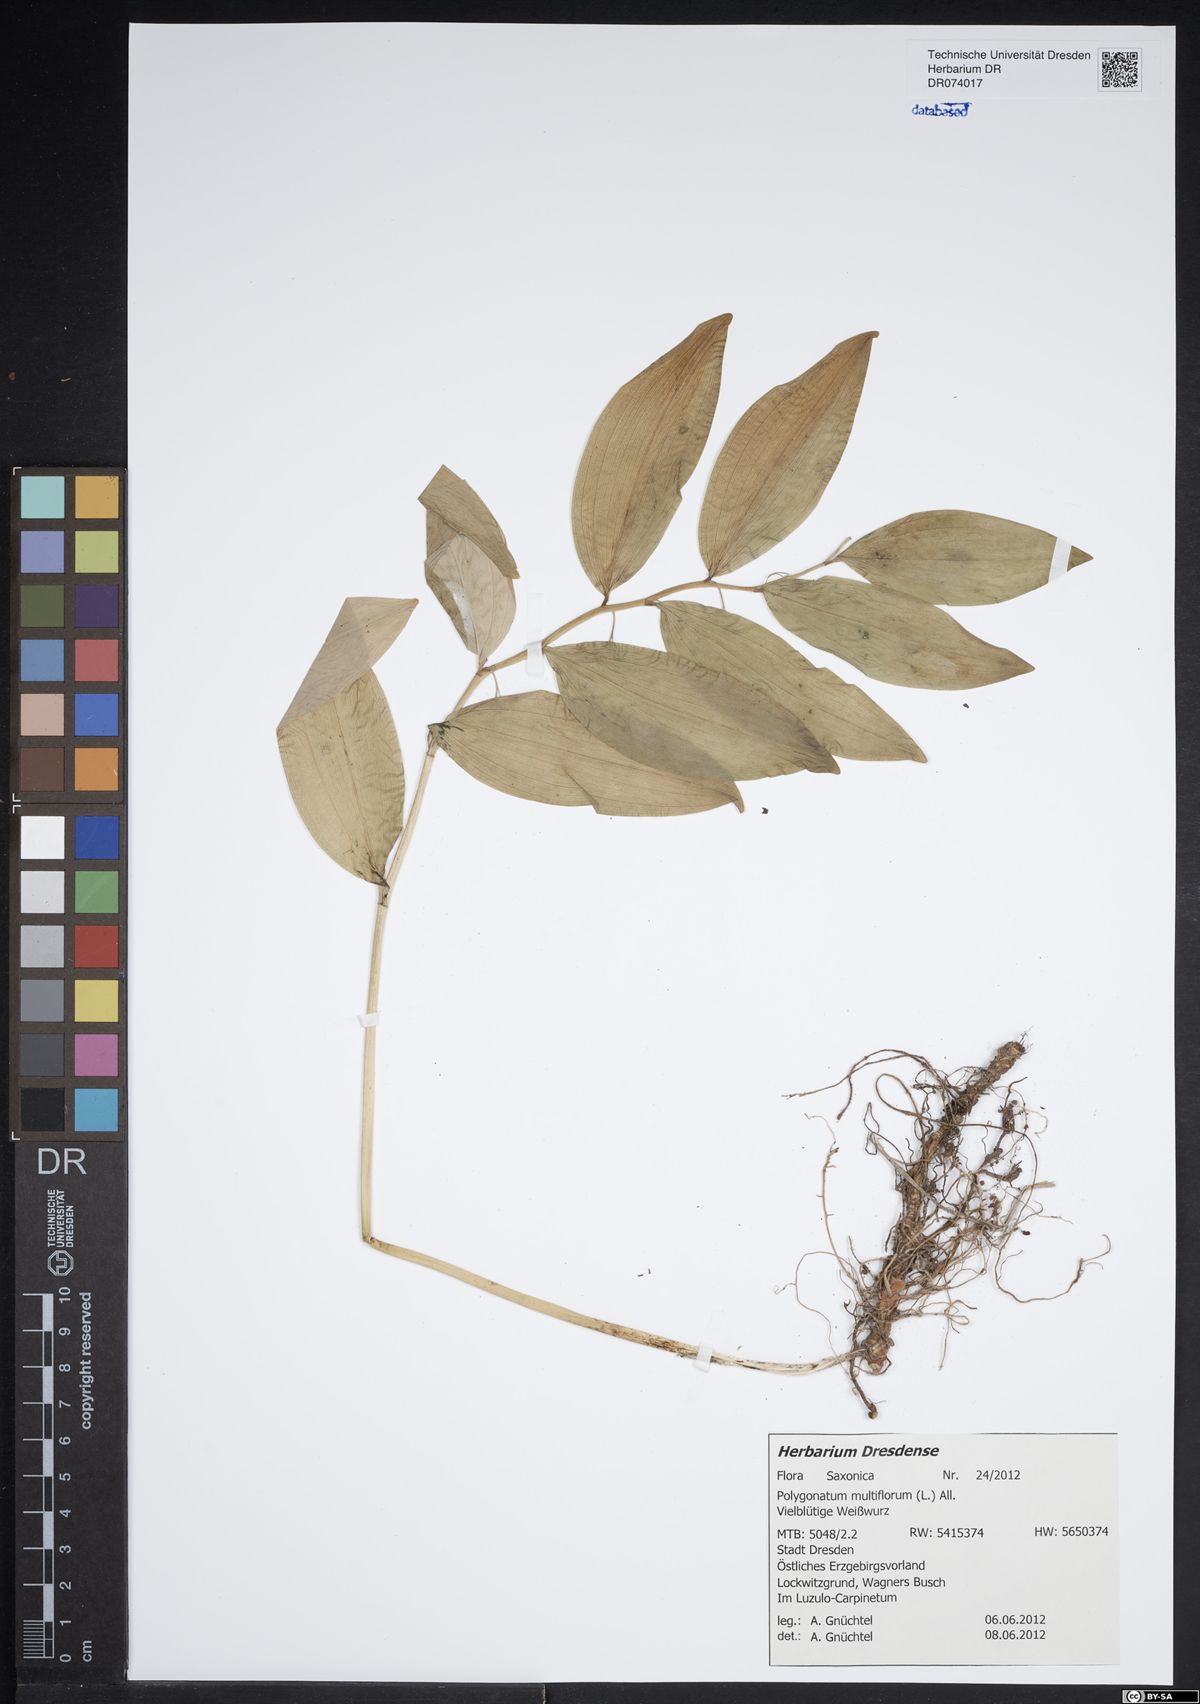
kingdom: Plantae
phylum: Tracheophyta
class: Liliopsida
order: Asparagales
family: Asparagaceae
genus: Polygonatum
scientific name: Polygonatum multiflorum
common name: Solomon's-seal
